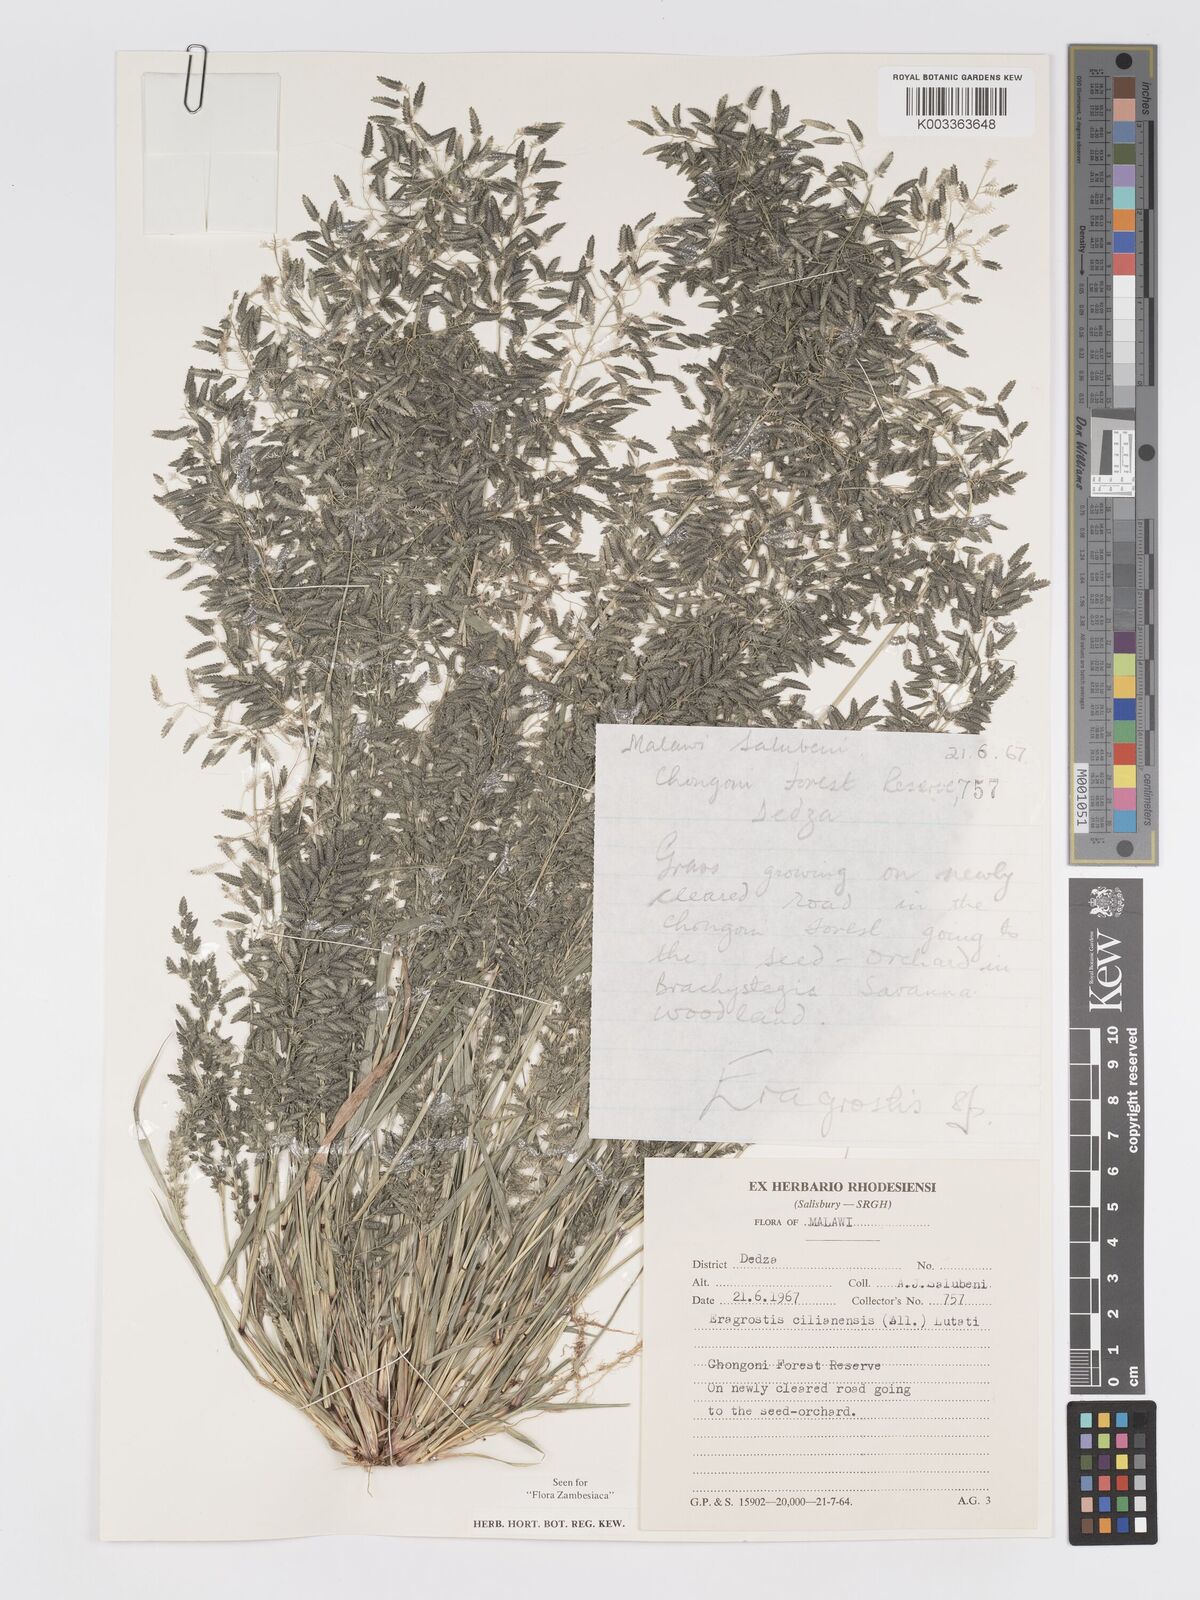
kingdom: Plantae
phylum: Tracheophyta
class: Liliopsida
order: Poales
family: Poaceae
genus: Eragrostis
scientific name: Eragrostis cilianensis
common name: Stinkgrass
